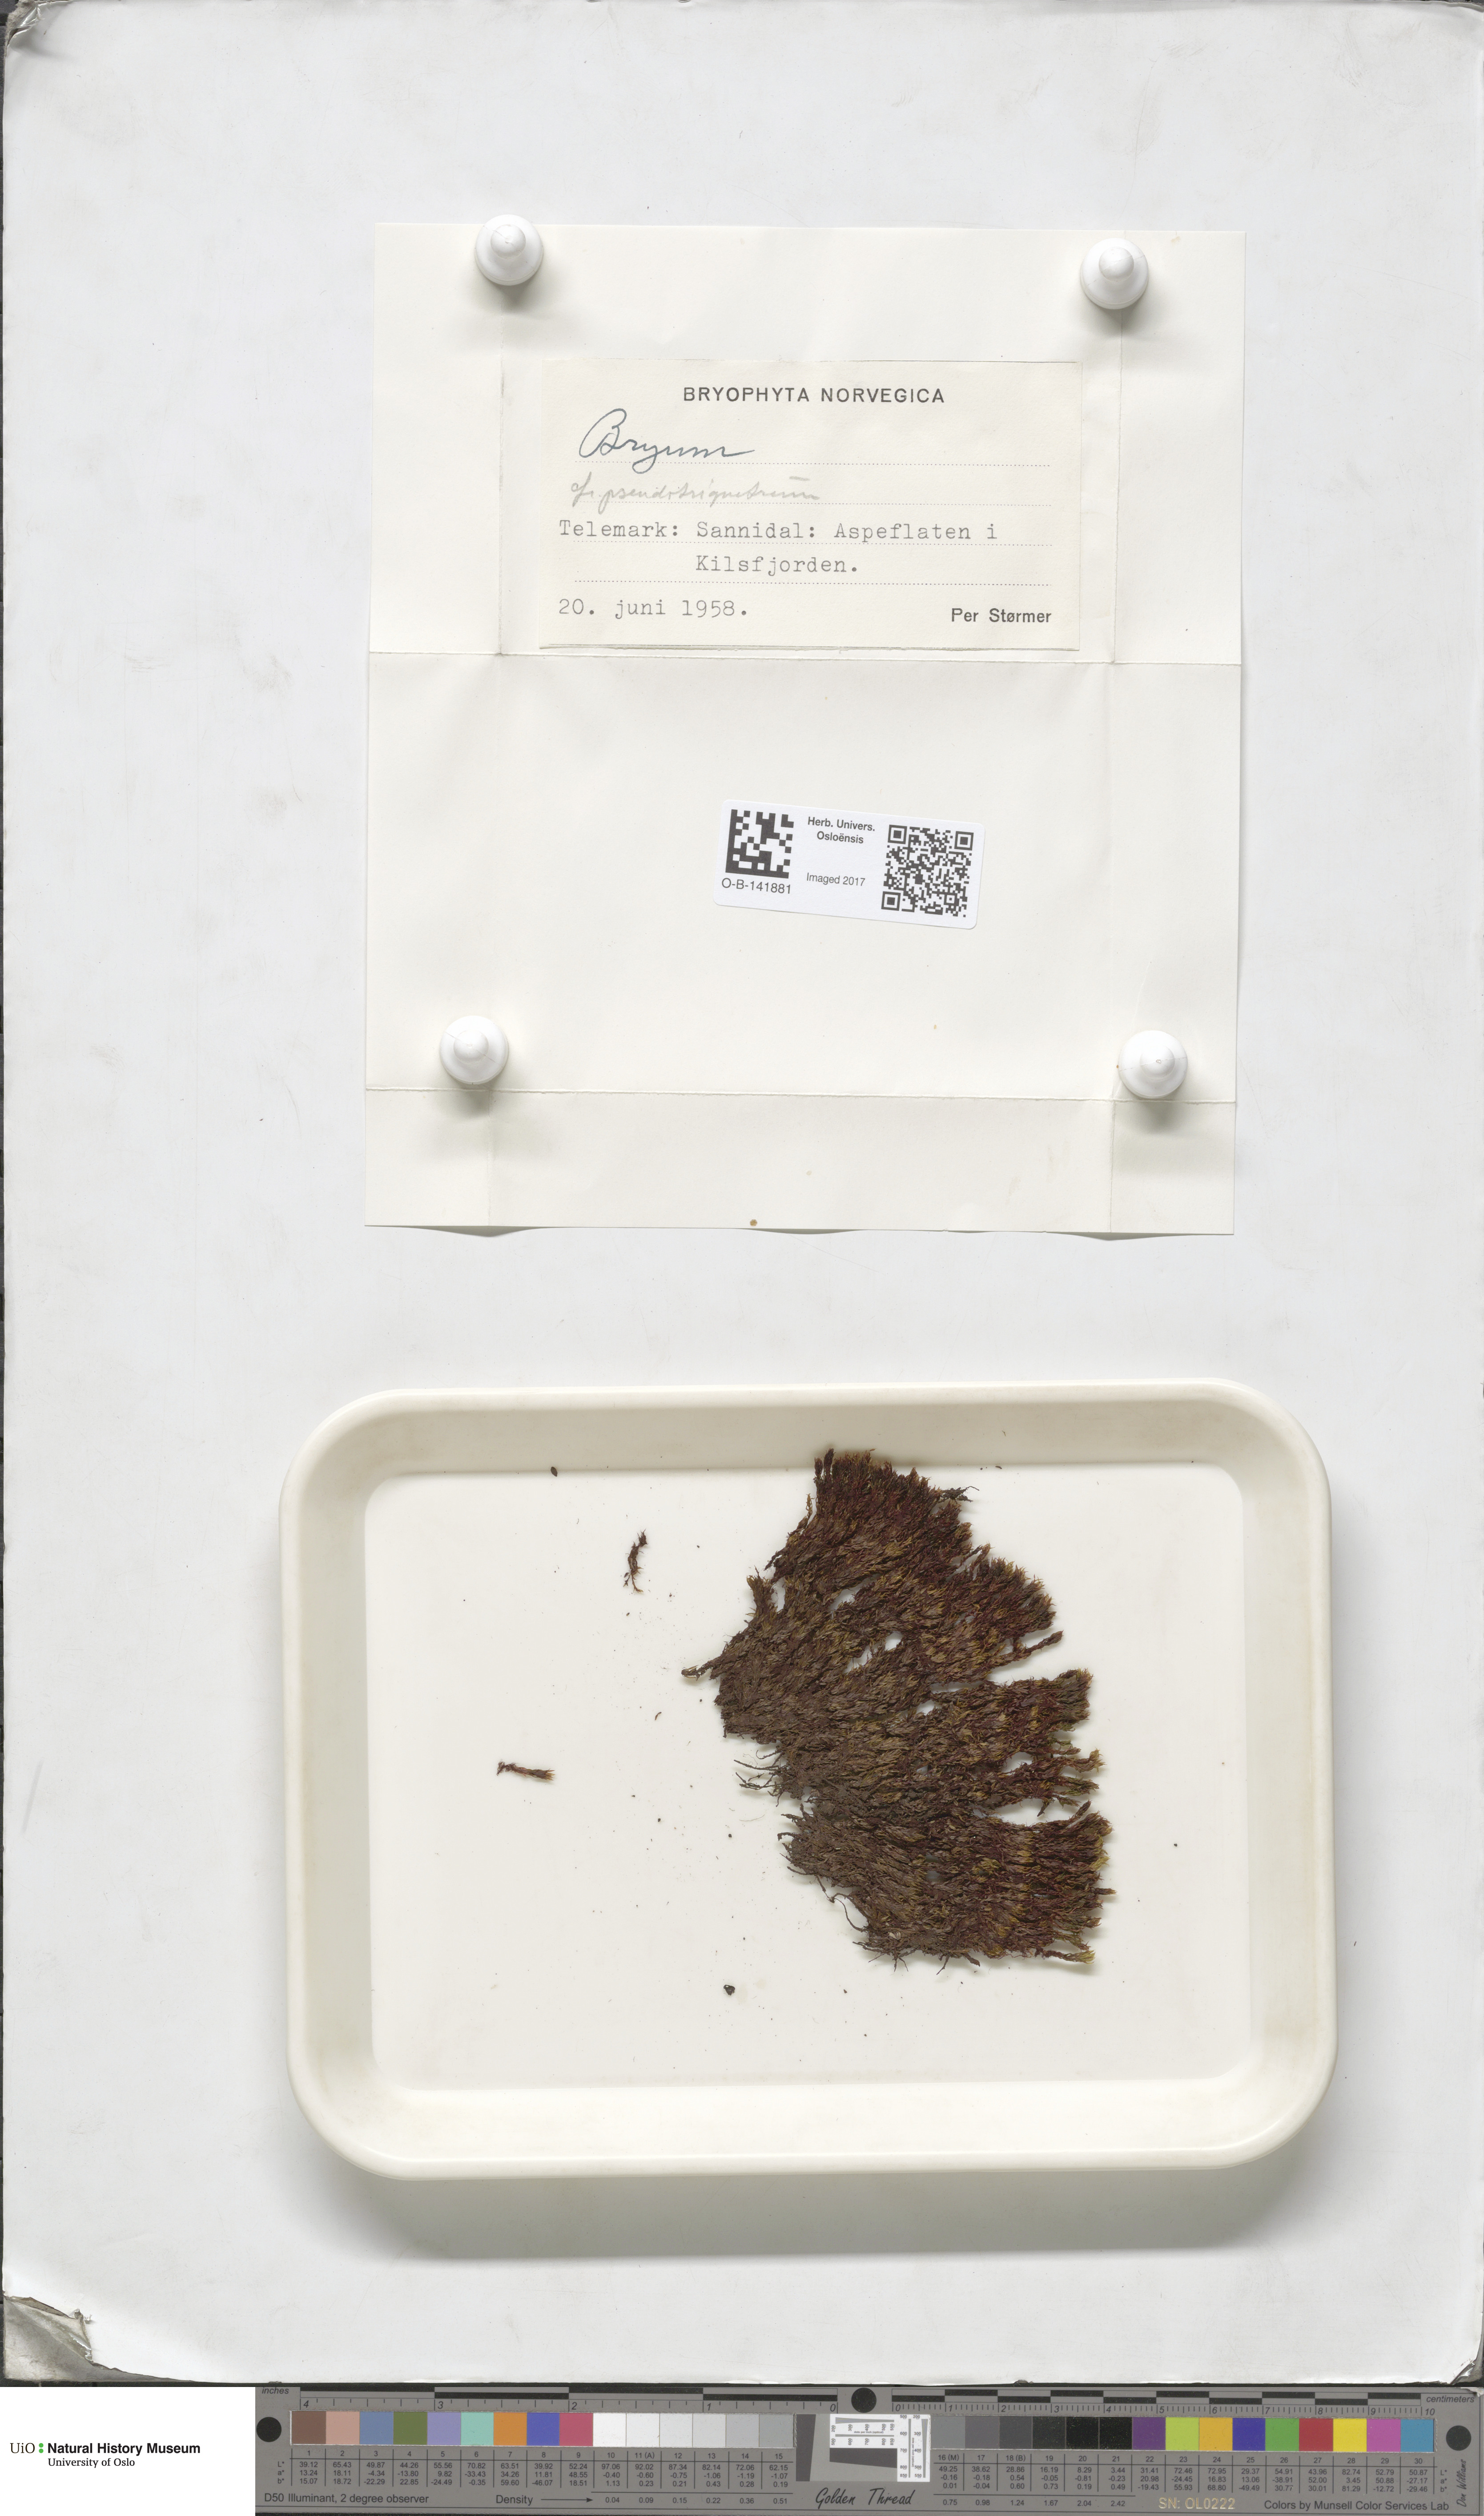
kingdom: Plantae
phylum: Bryophyta
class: Bryopsida
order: Bryales
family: Bryaceae
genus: Ptychostomum
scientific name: Ptychostomum pseudotriquetrum
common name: Long-leaved thread moss
